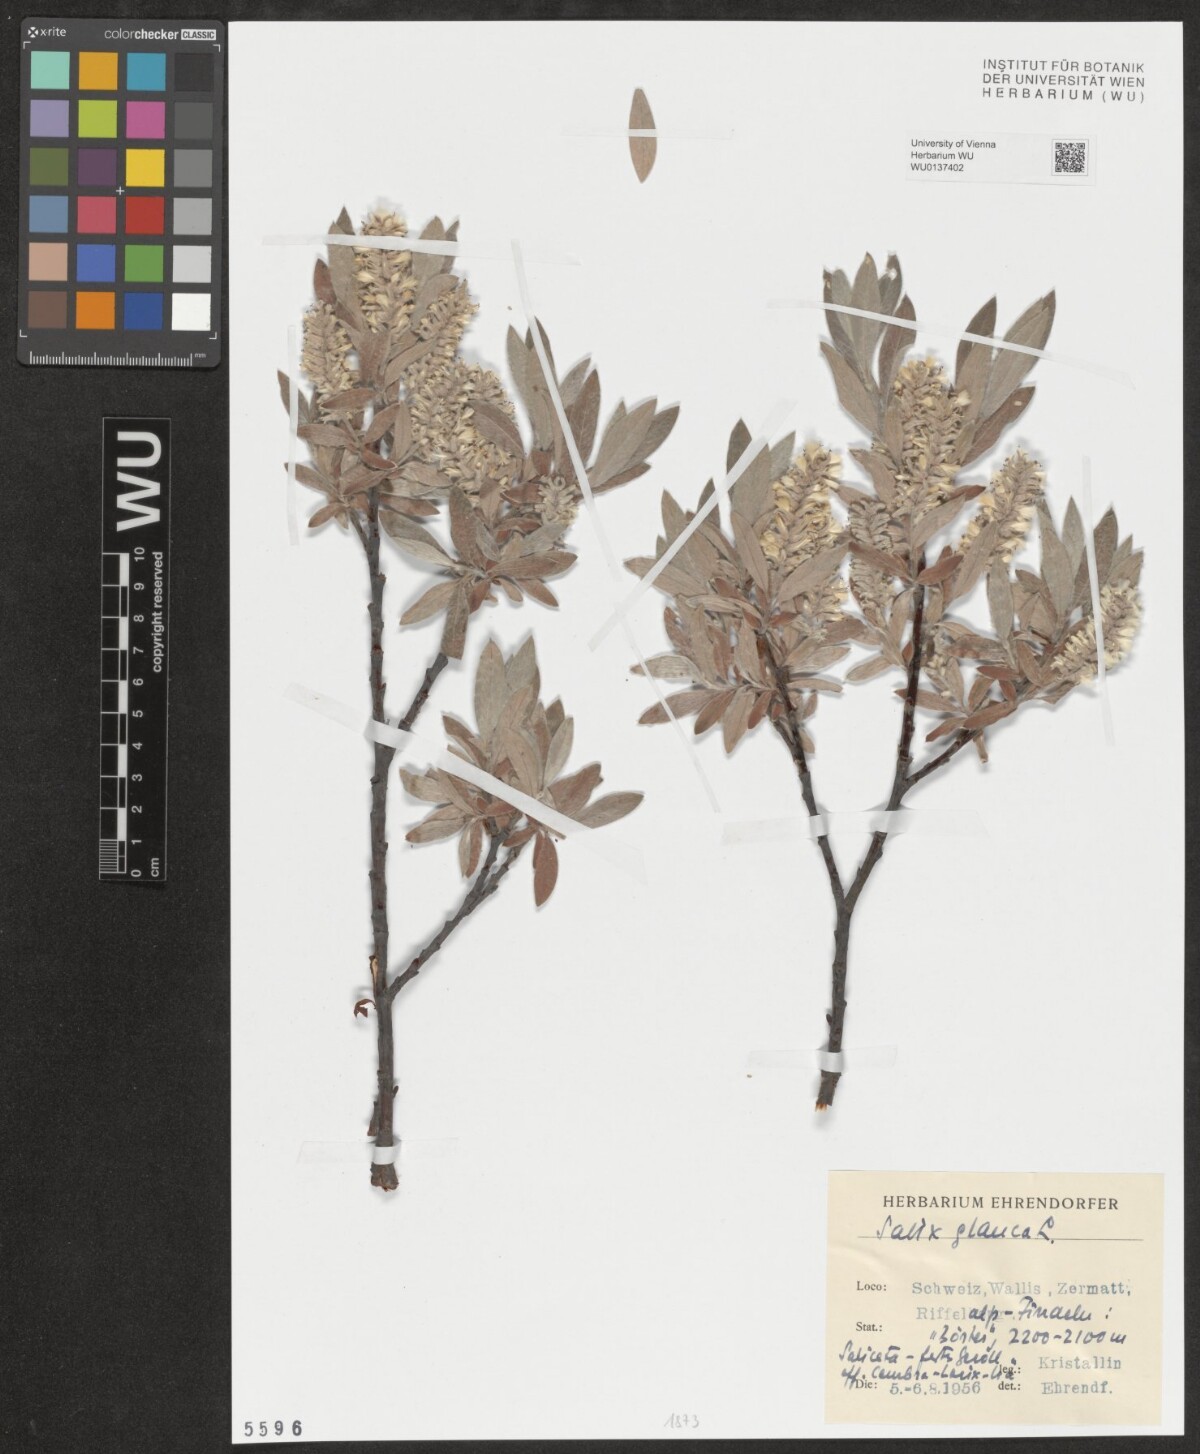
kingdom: Plantae
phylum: Tracheophyta
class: Magnoliopsida
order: Malpighiales
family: Salicaceae
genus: Salix
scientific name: Salix glauca
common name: Glaucous willow
